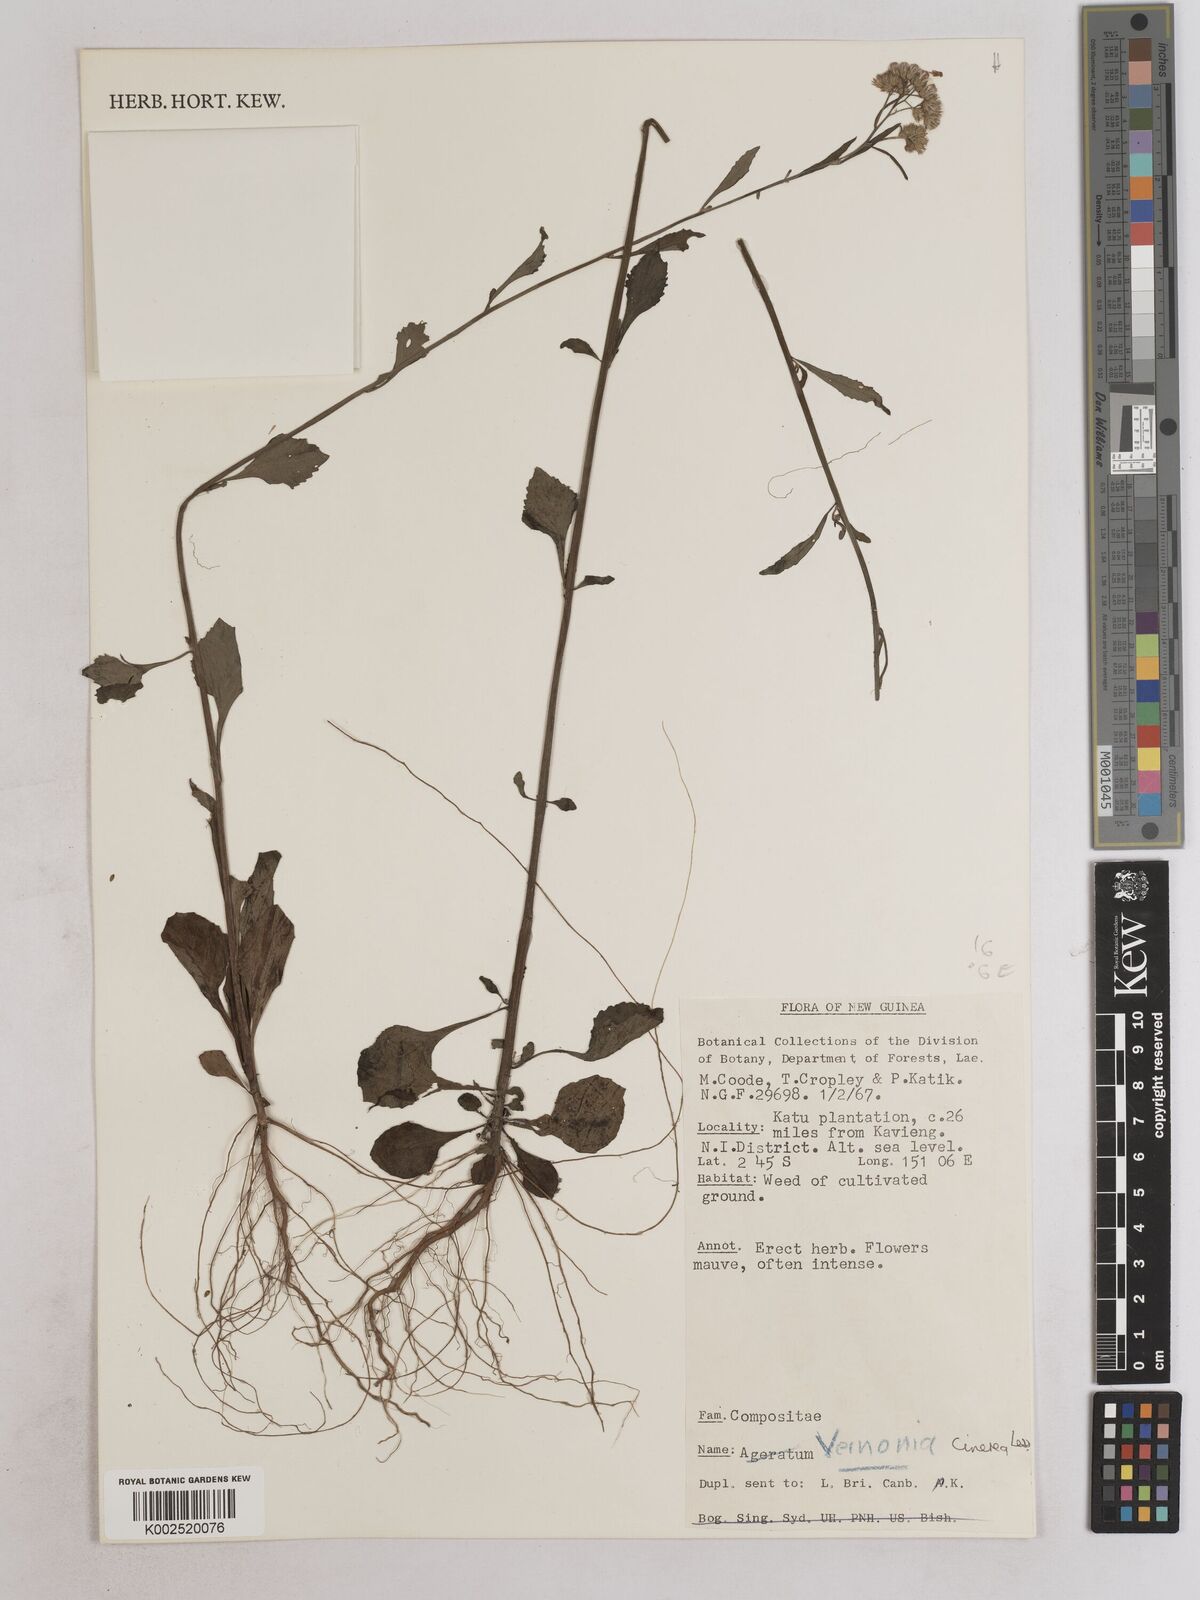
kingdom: Plantae
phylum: Tracheophyta
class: Magnoliopsida
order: Asterales
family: Asteraceae
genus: Cyanthillium
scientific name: Cyanthillium cinereum
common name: Little ironweed
